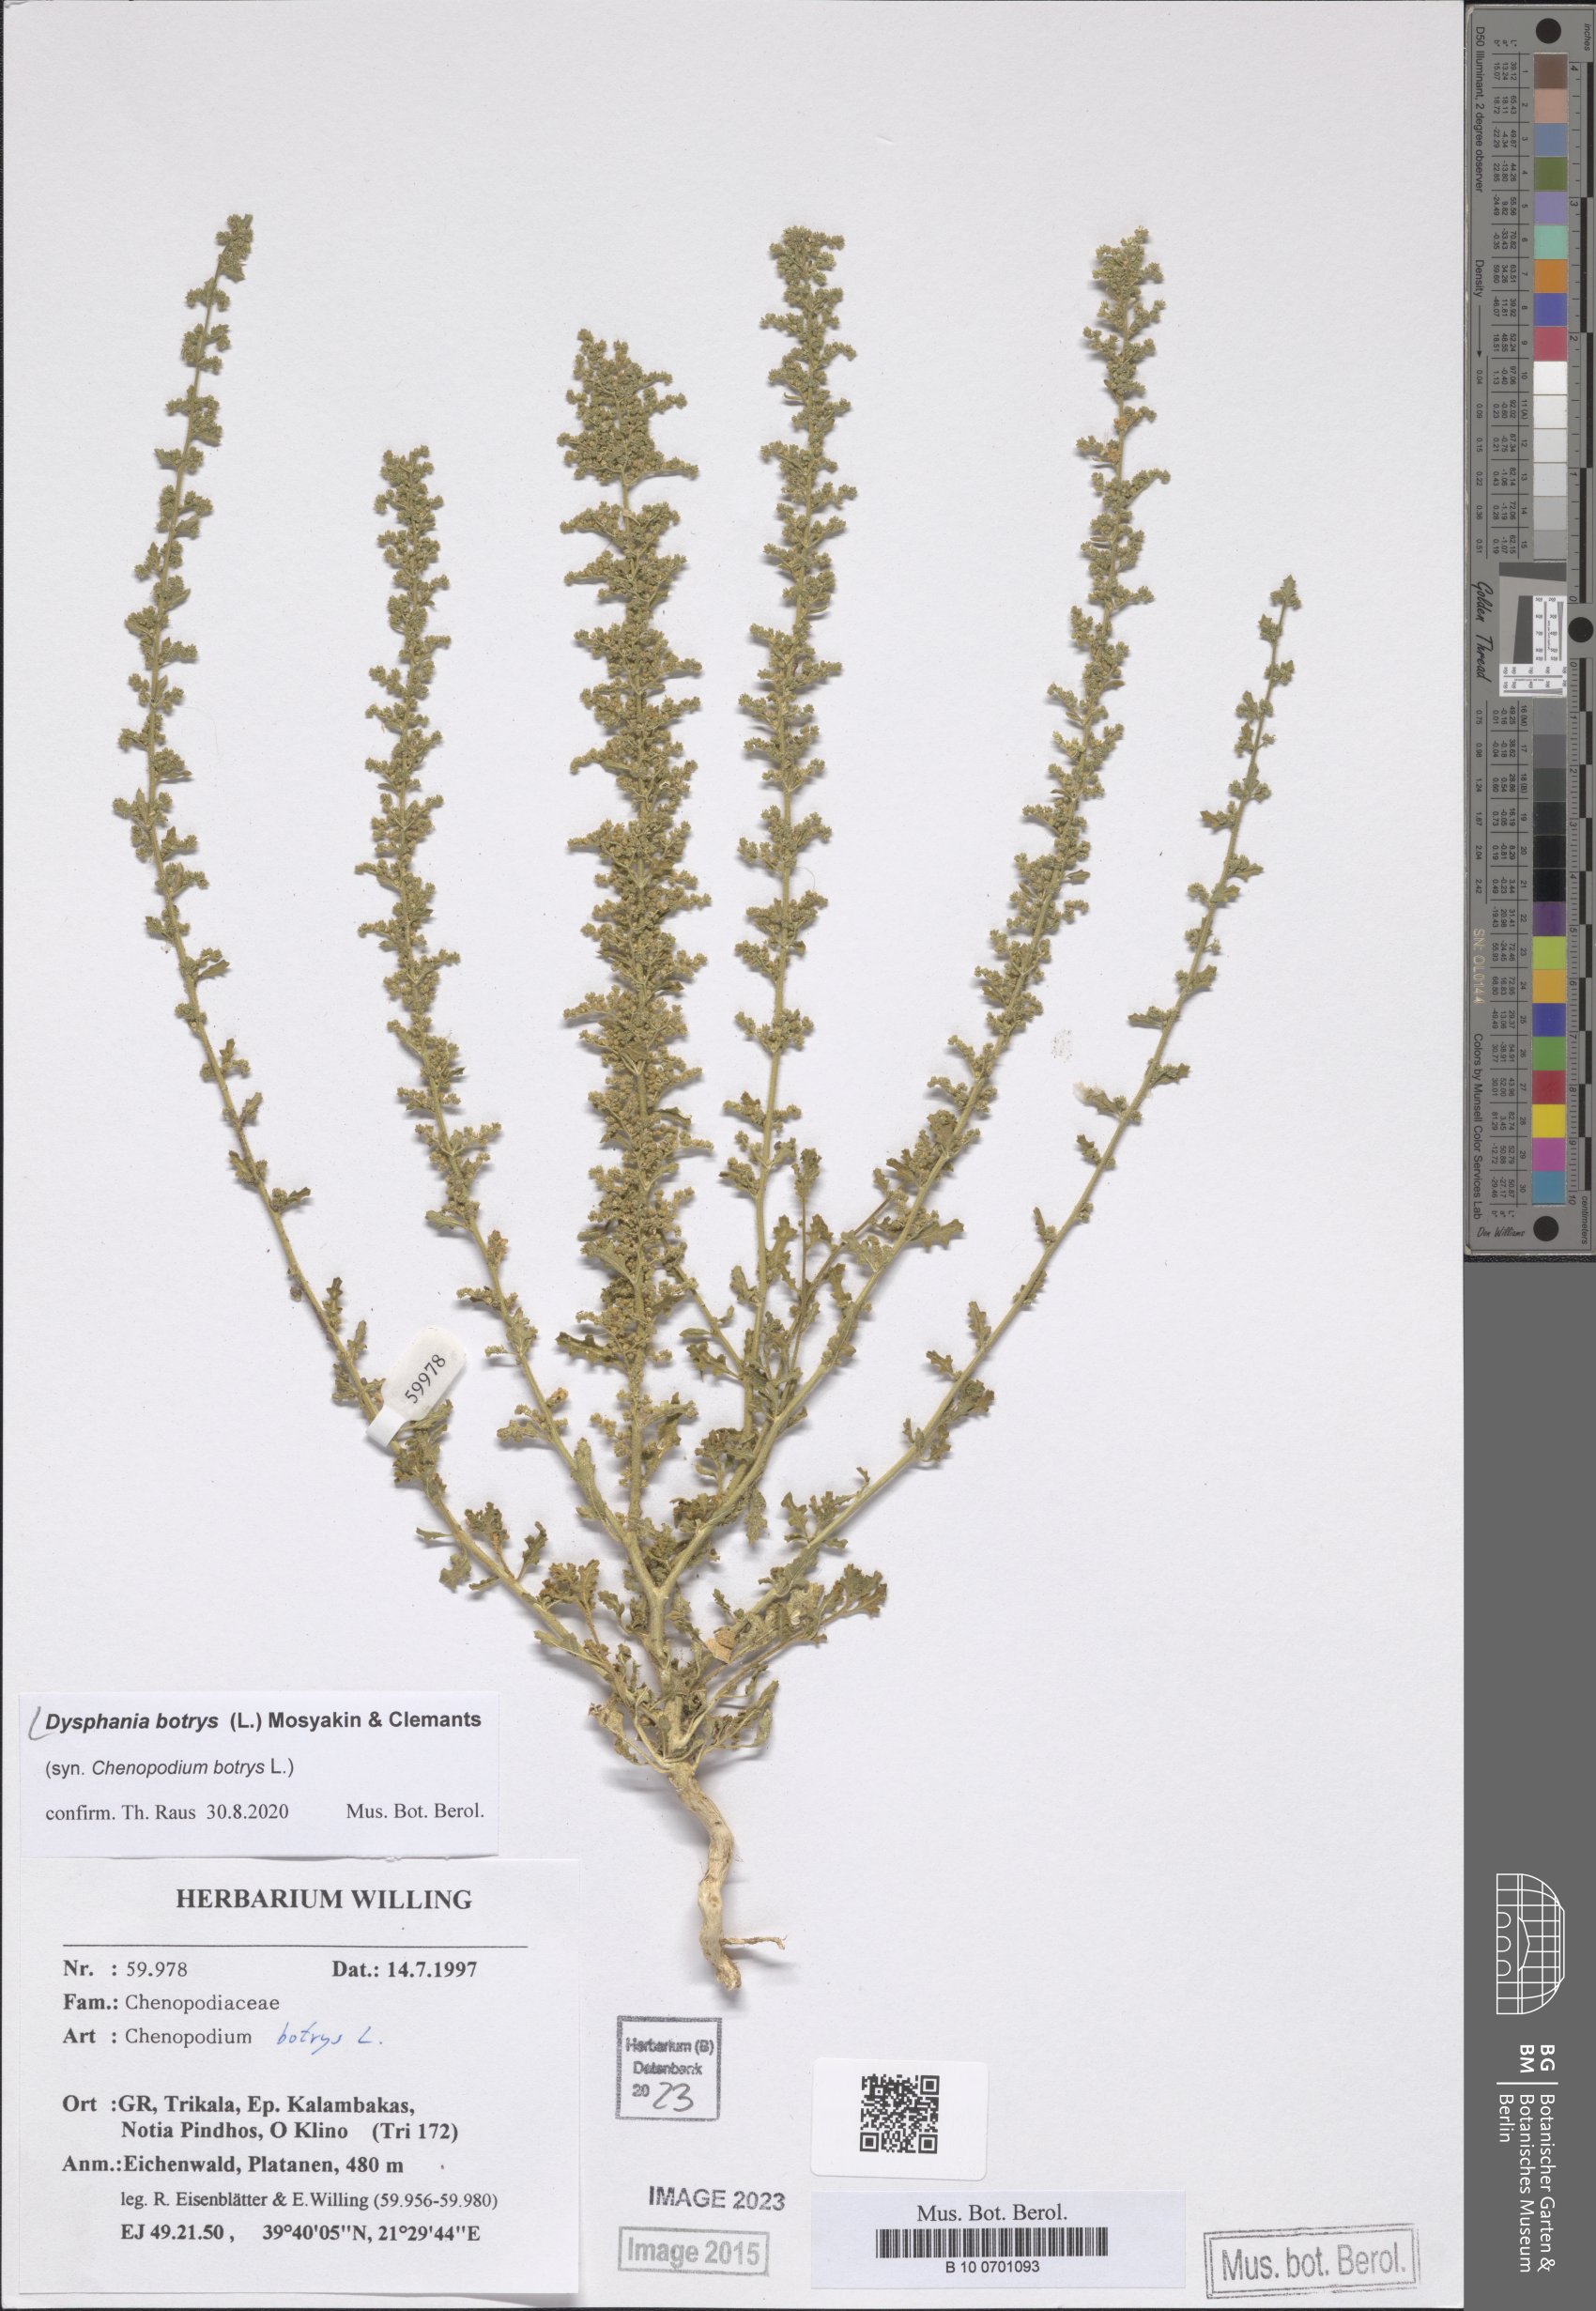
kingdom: Plantae
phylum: Tracheophyta
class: Magnoliopsida
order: Caryophyllales
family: Amaranthaceae
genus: Dysphania
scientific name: Dysphania botrys
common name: Feather-geranium
